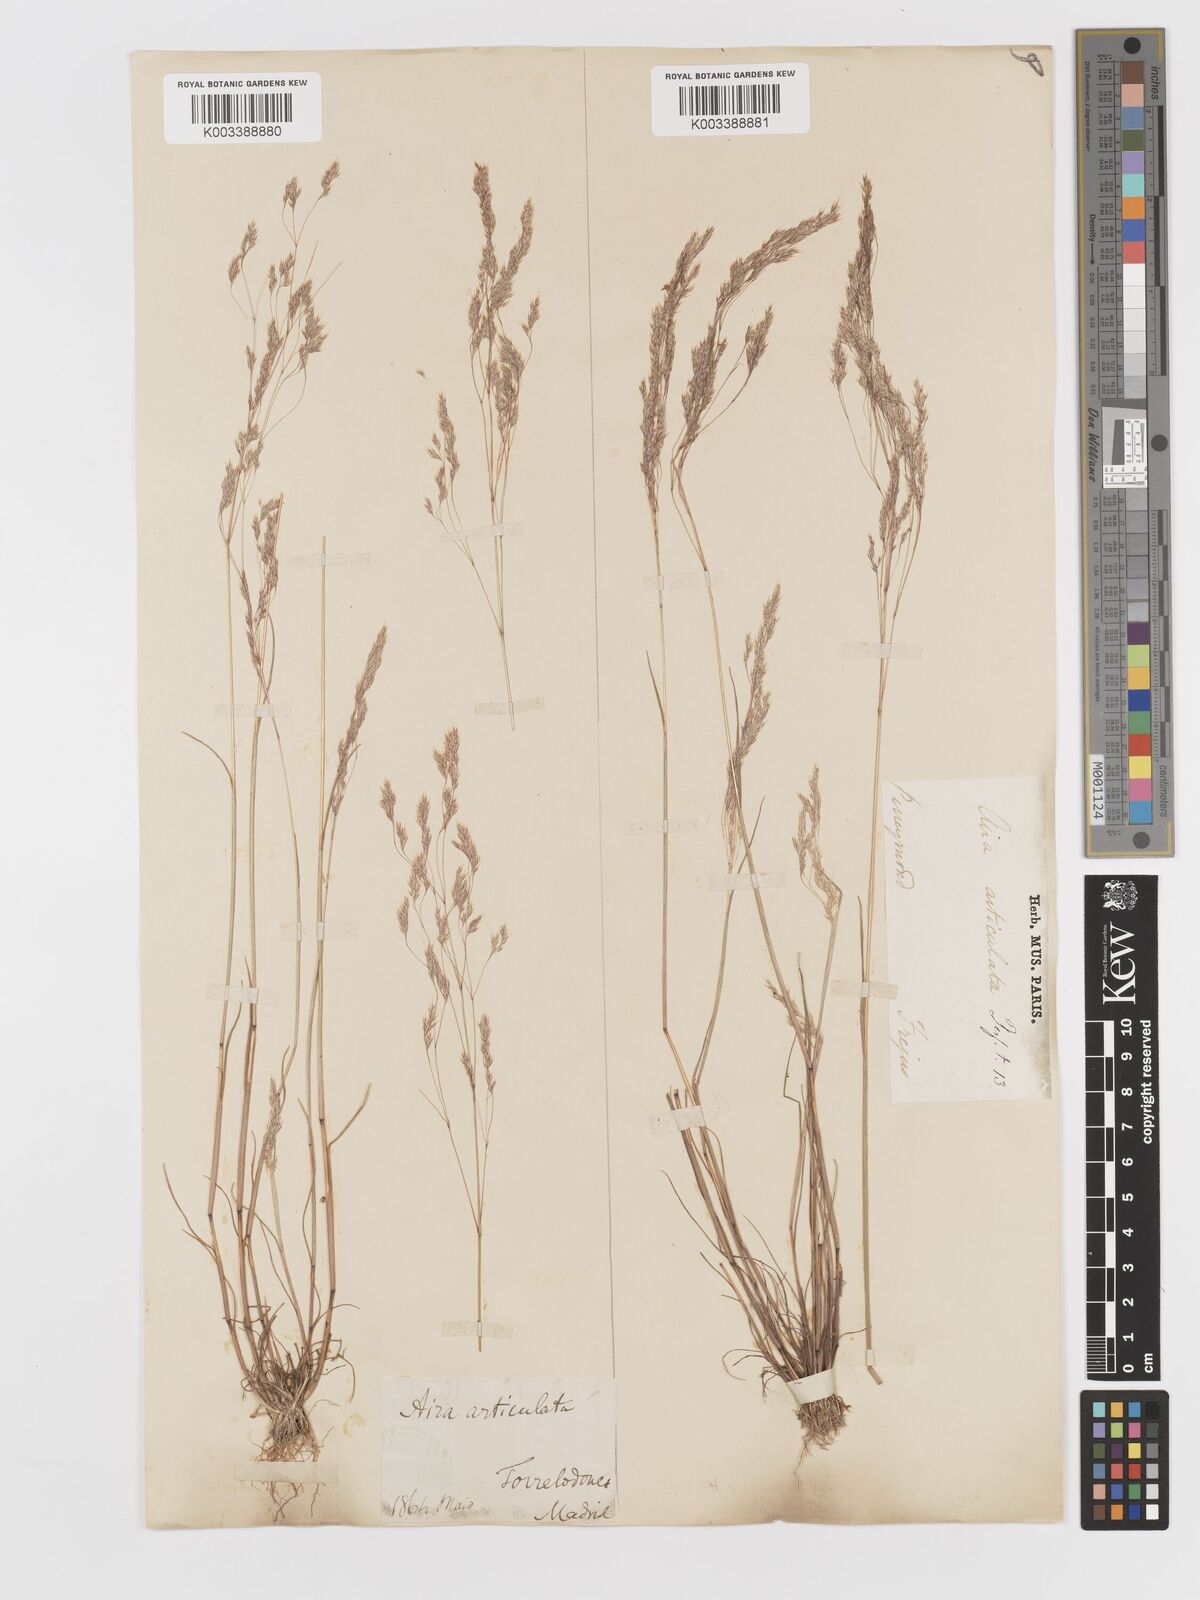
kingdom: Plantae
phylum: Tracheophyta
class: Liliopsida
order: Poales
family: Poaceae
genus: Corynephorus
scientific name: Corynephorus fasciculatus
